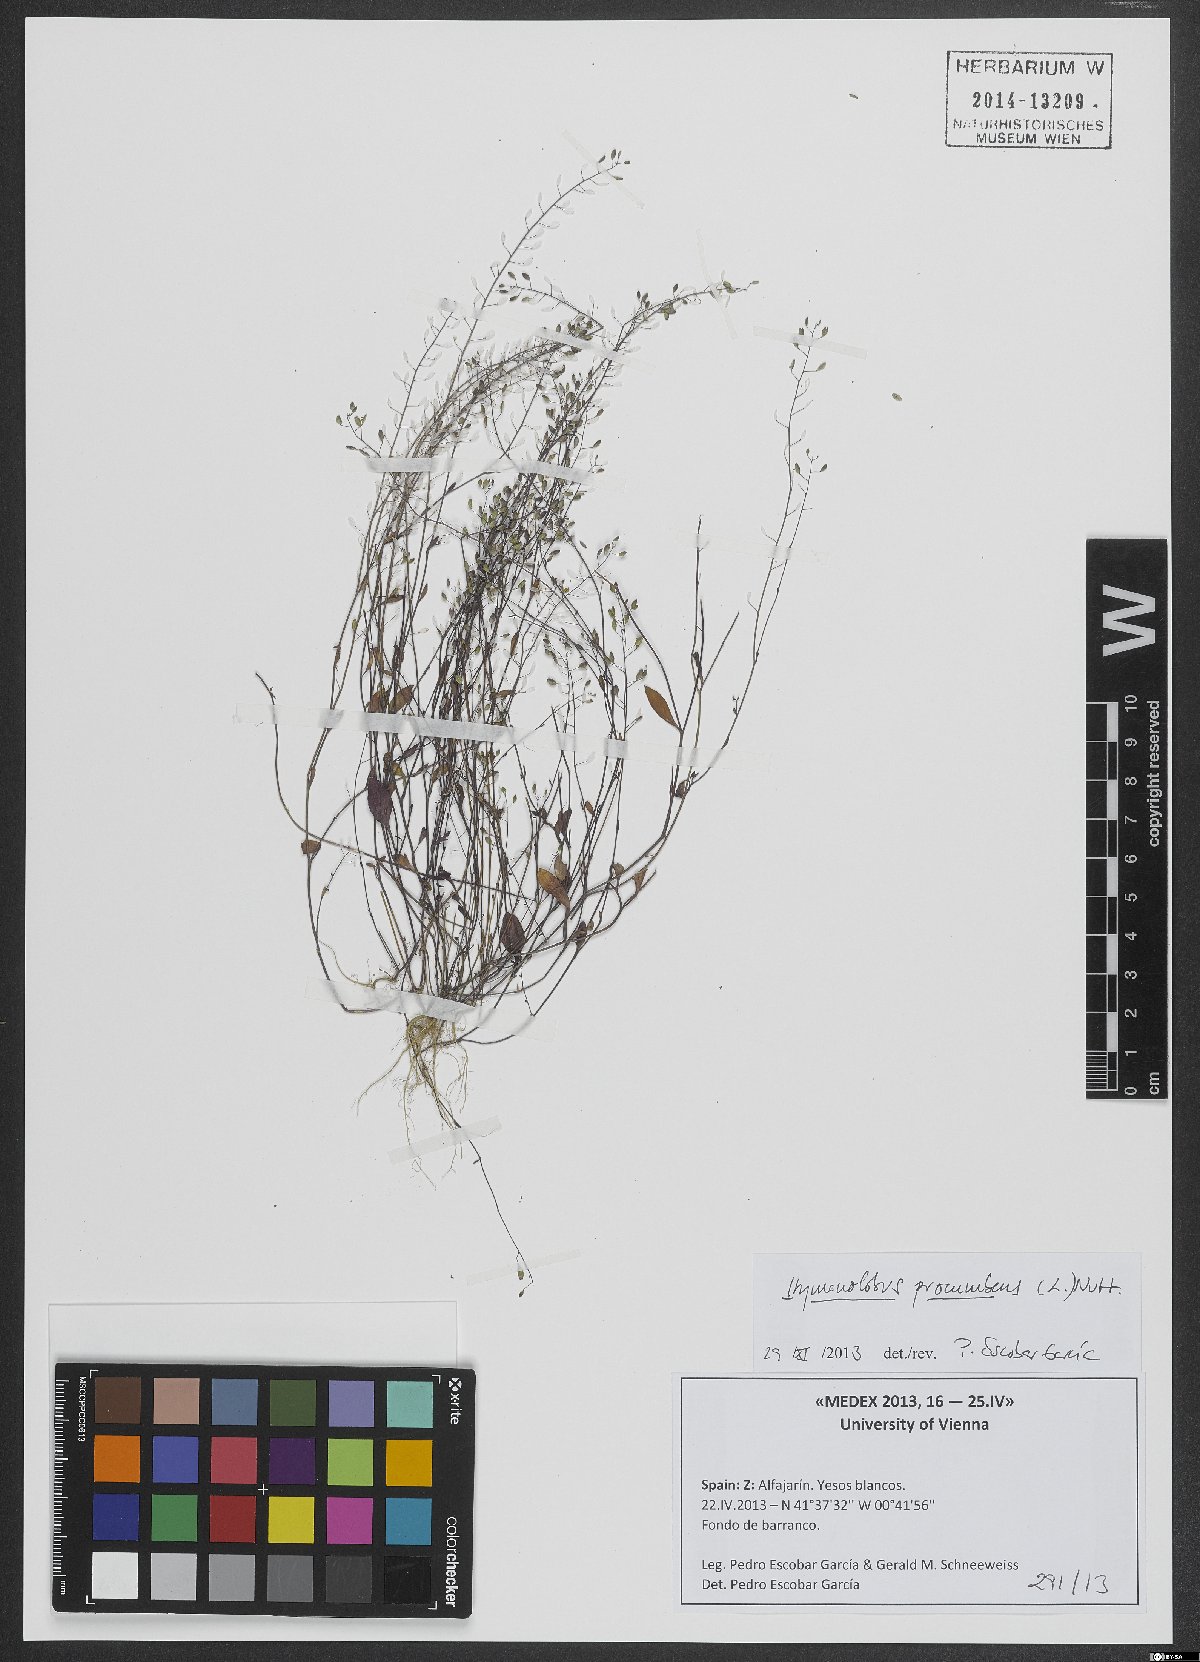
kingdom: Plantae
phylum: Tracheophyta
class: Magnoliopsida
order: Brassicales
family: Brassicaceae
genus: Hornungia
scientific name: Hornungia procumbens
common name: Oval purse
